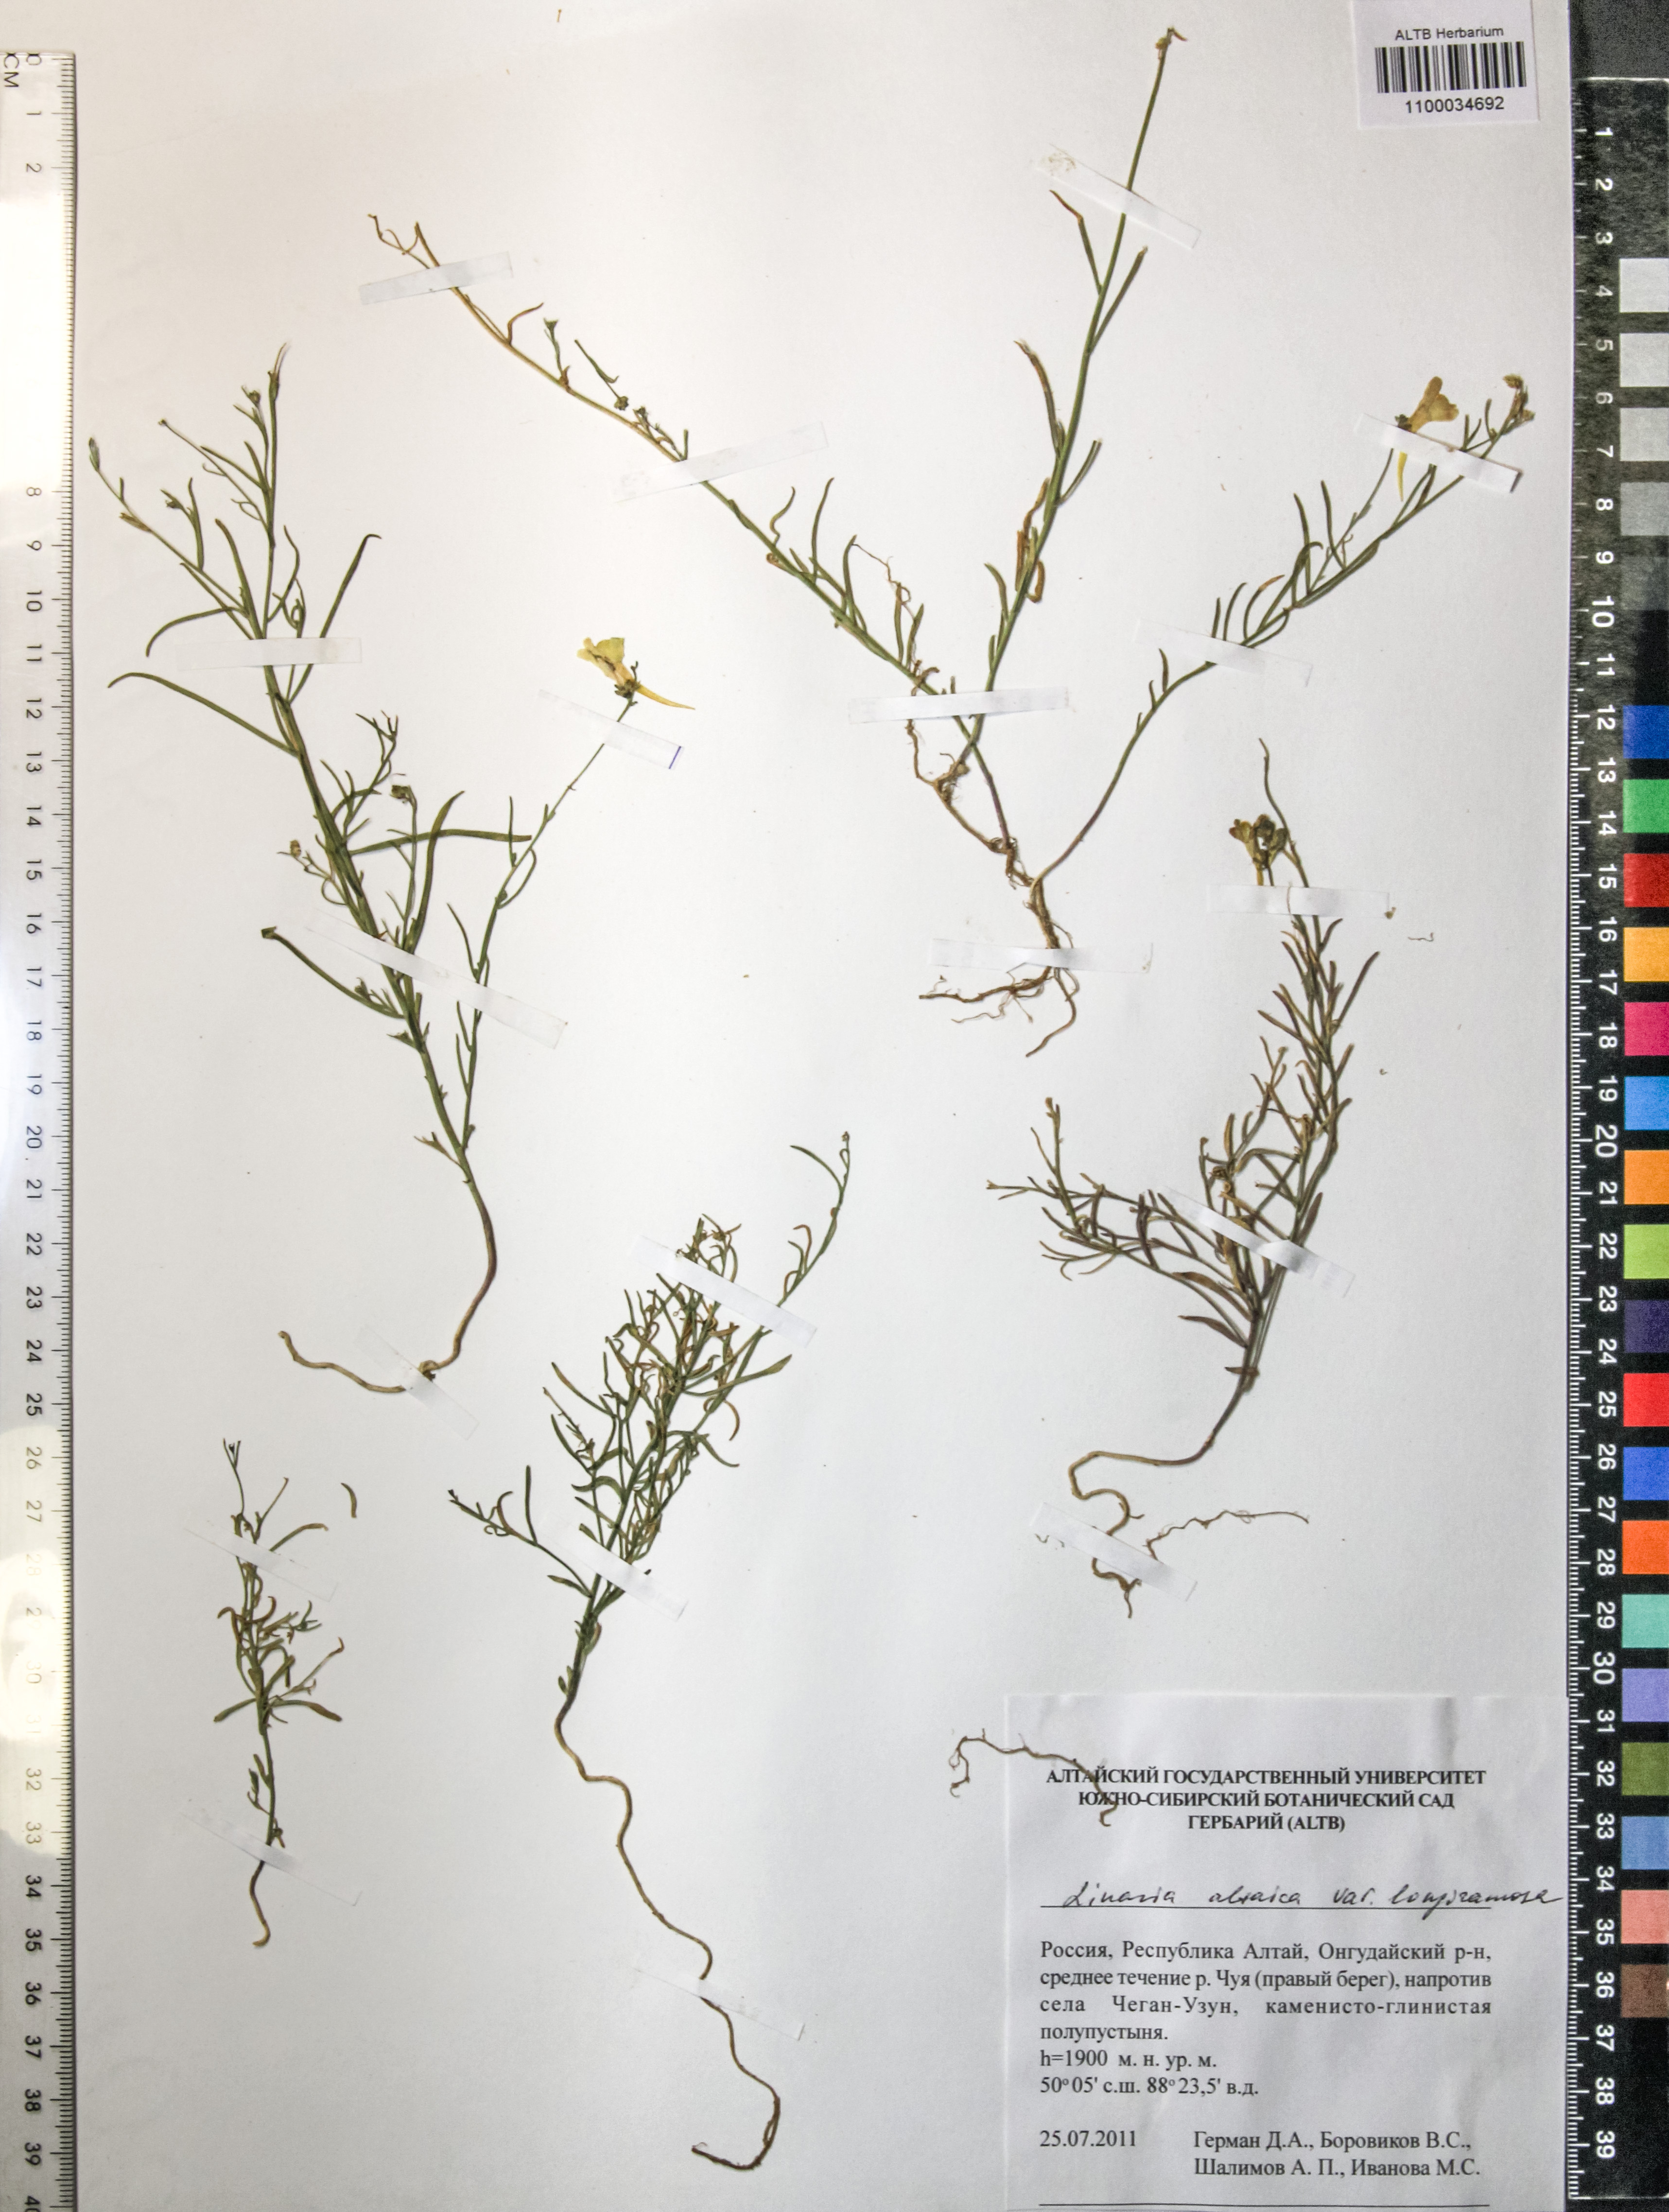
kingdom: Plantae
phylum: Tracheophyta
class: Magnoliopsida
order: Lamiales
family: Plantaginaceae
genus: Linaria
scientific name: Linaria altaica
